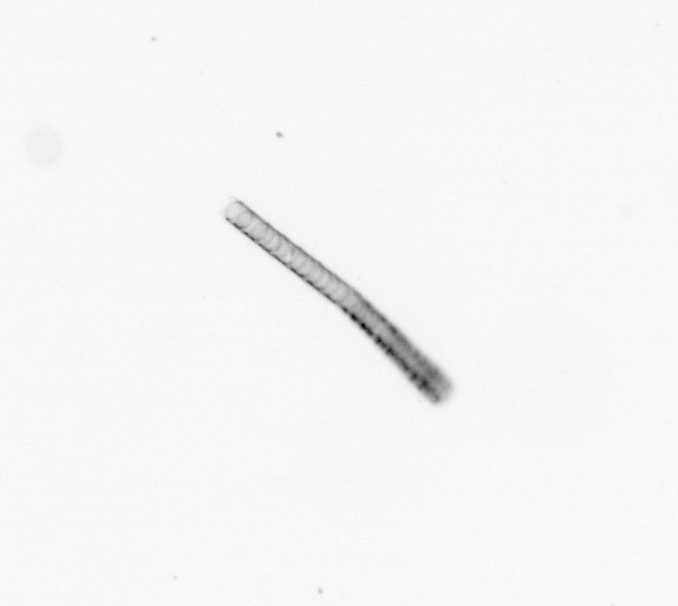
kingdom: Chromista
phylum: Ochrophyta
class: Bacillariophyceae
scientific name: Bacillariophyceae
